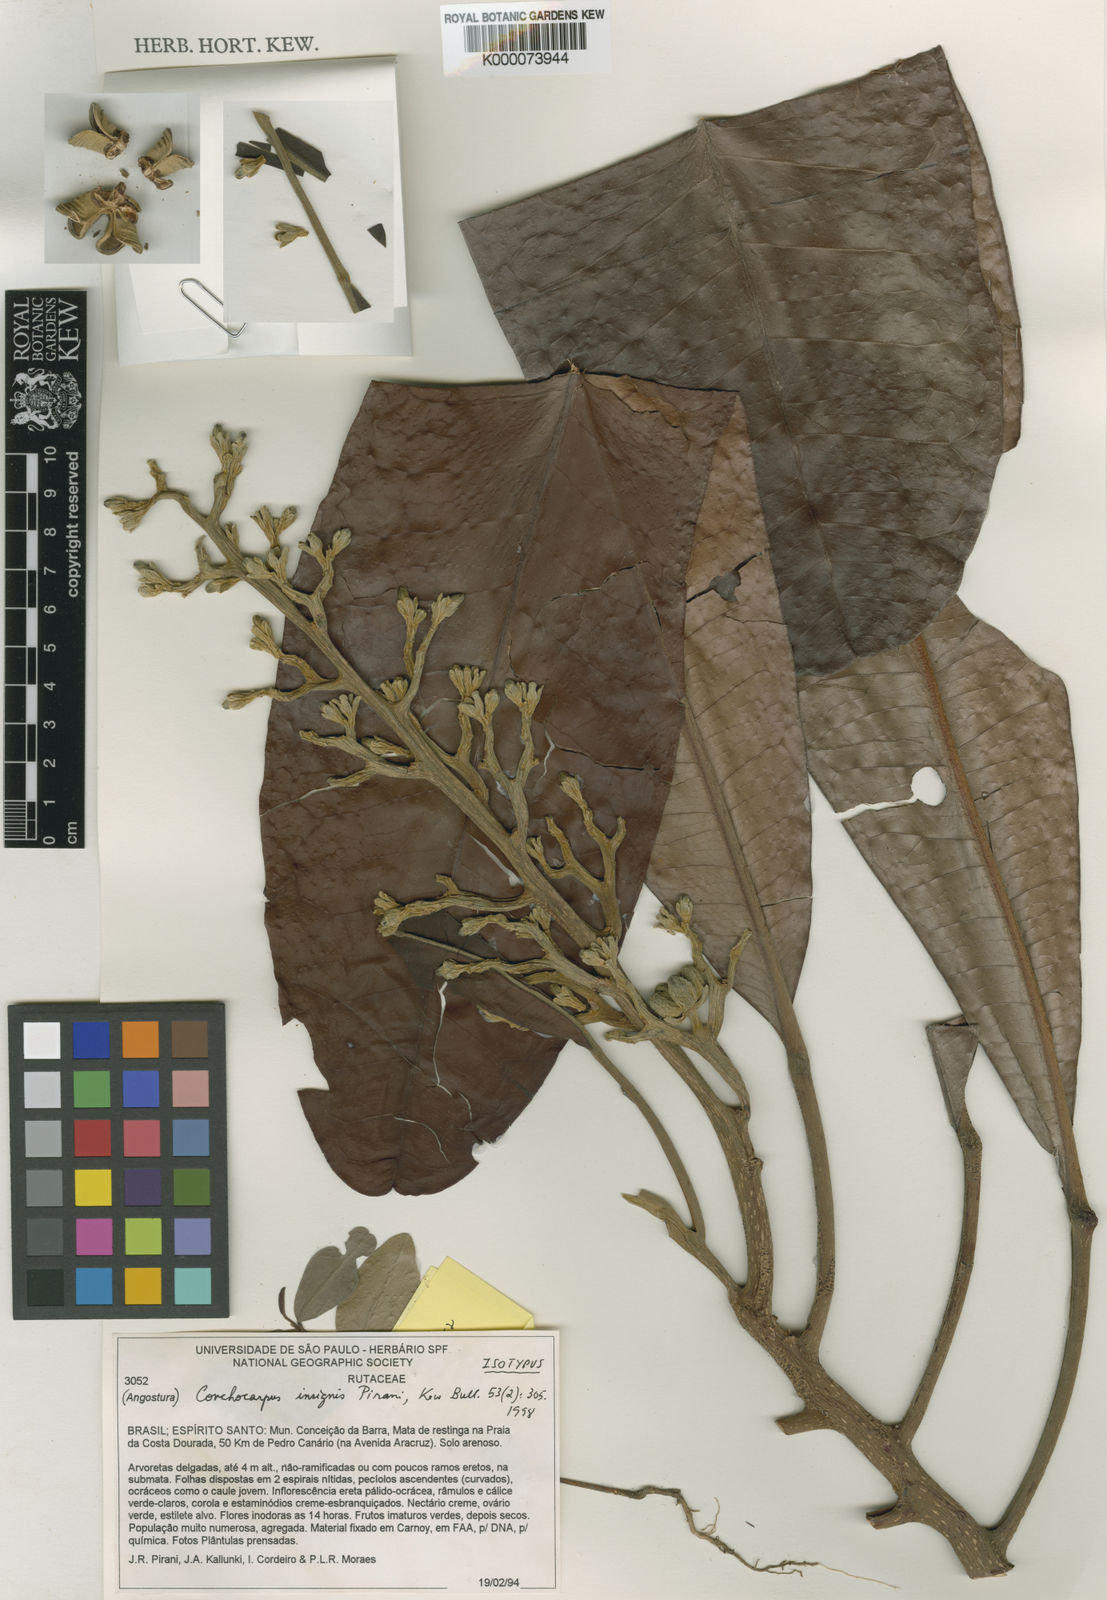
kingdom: Plantae
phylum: Tracheophyta
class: Magnoliopsida
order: Sapindales
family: Rutaceae
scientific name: Rutaceae
